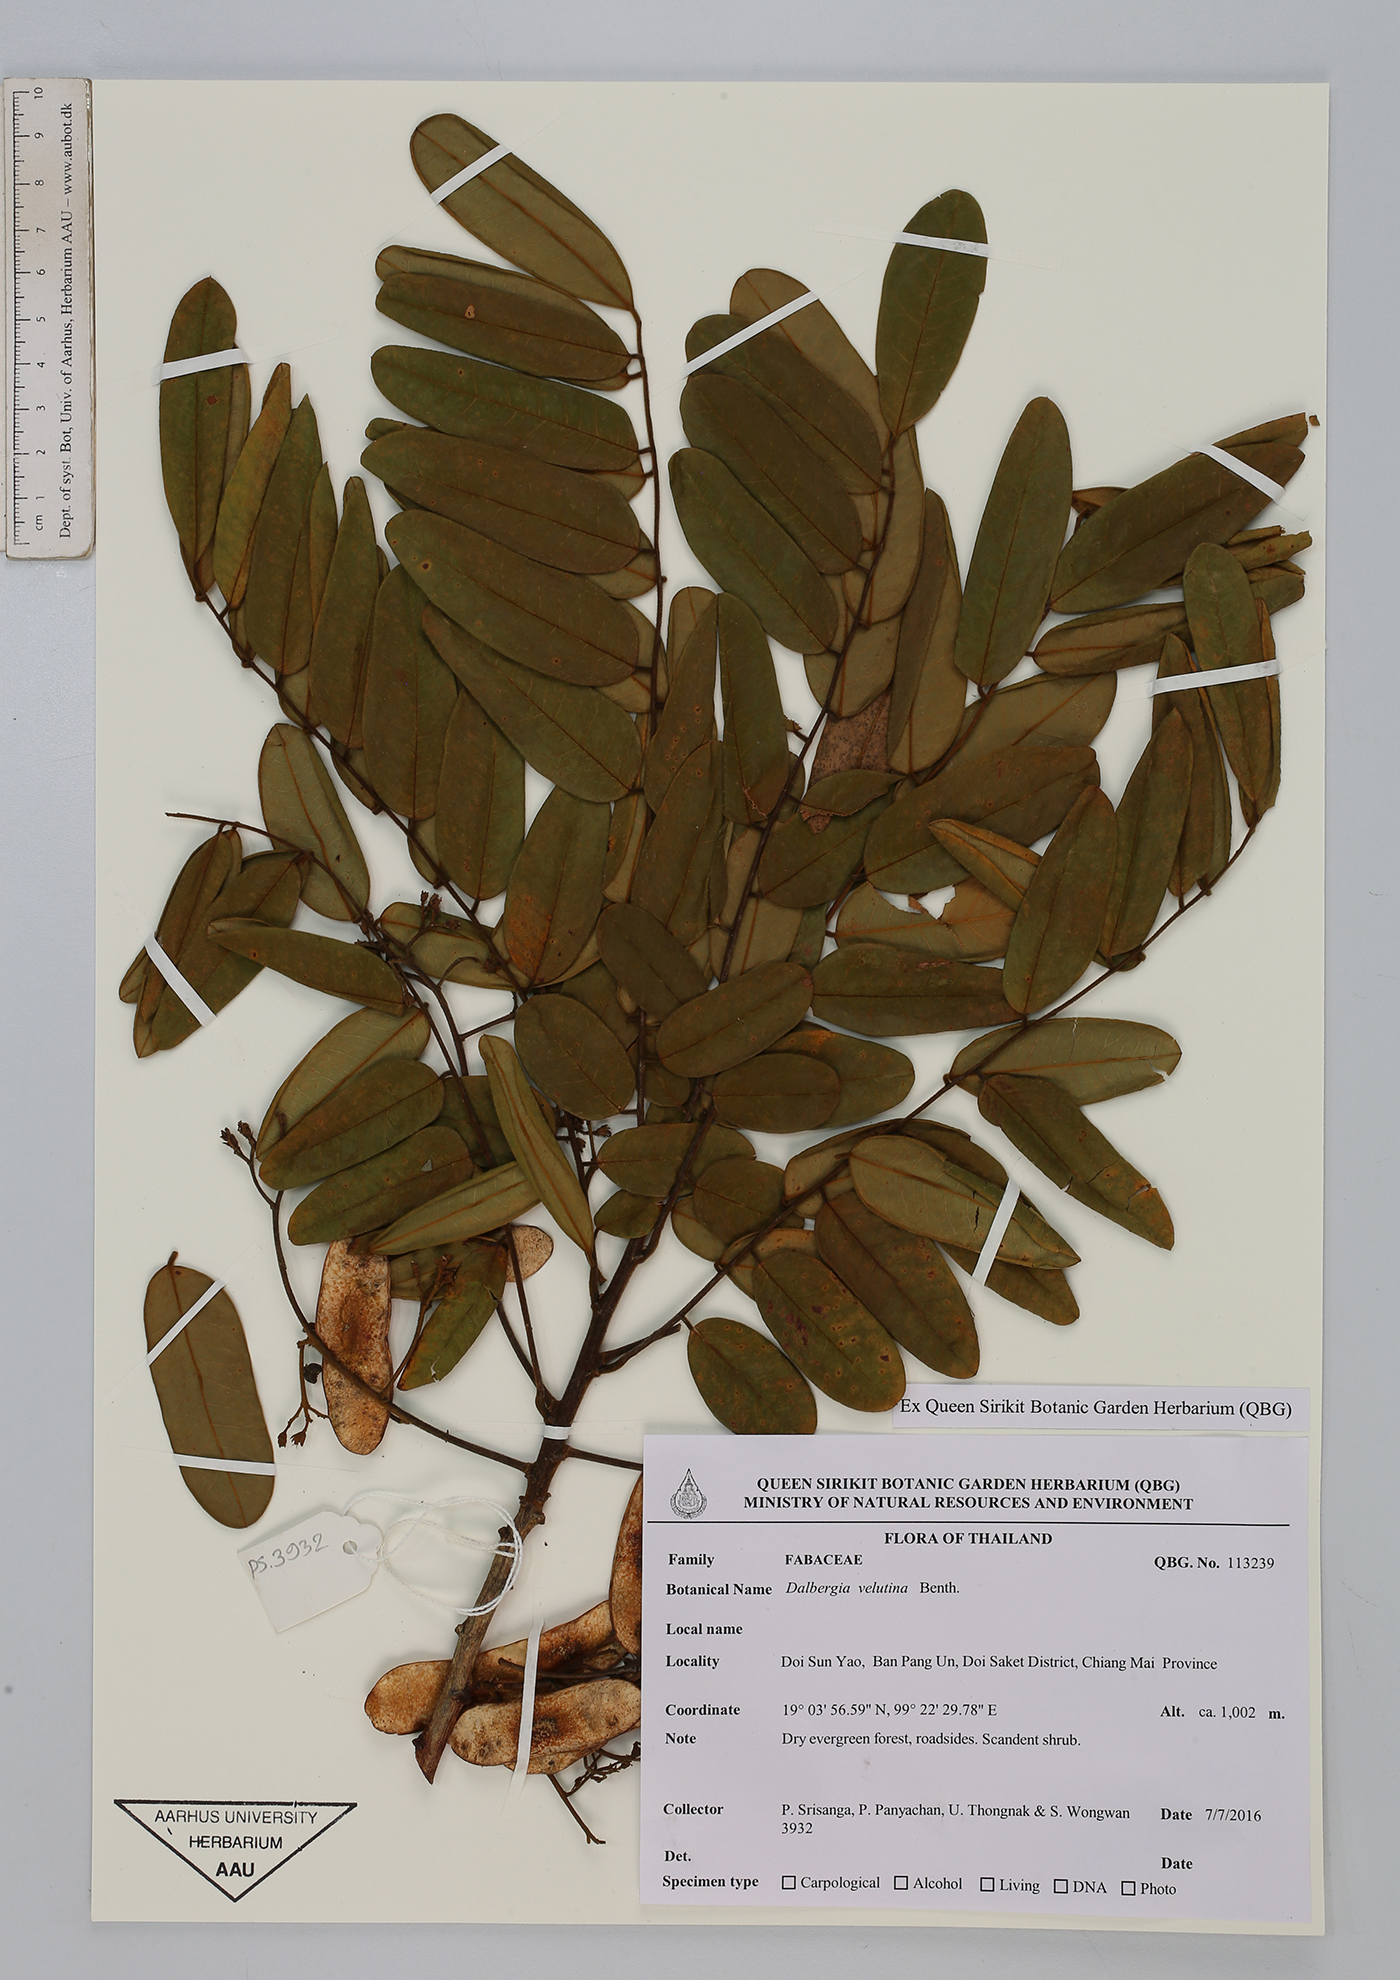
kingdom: Plantae
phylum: Tracheophyta
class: Magnoliopsida
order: Fabales
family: Fabaceae
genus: Dalbergia
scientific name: Dalbergia velutina
